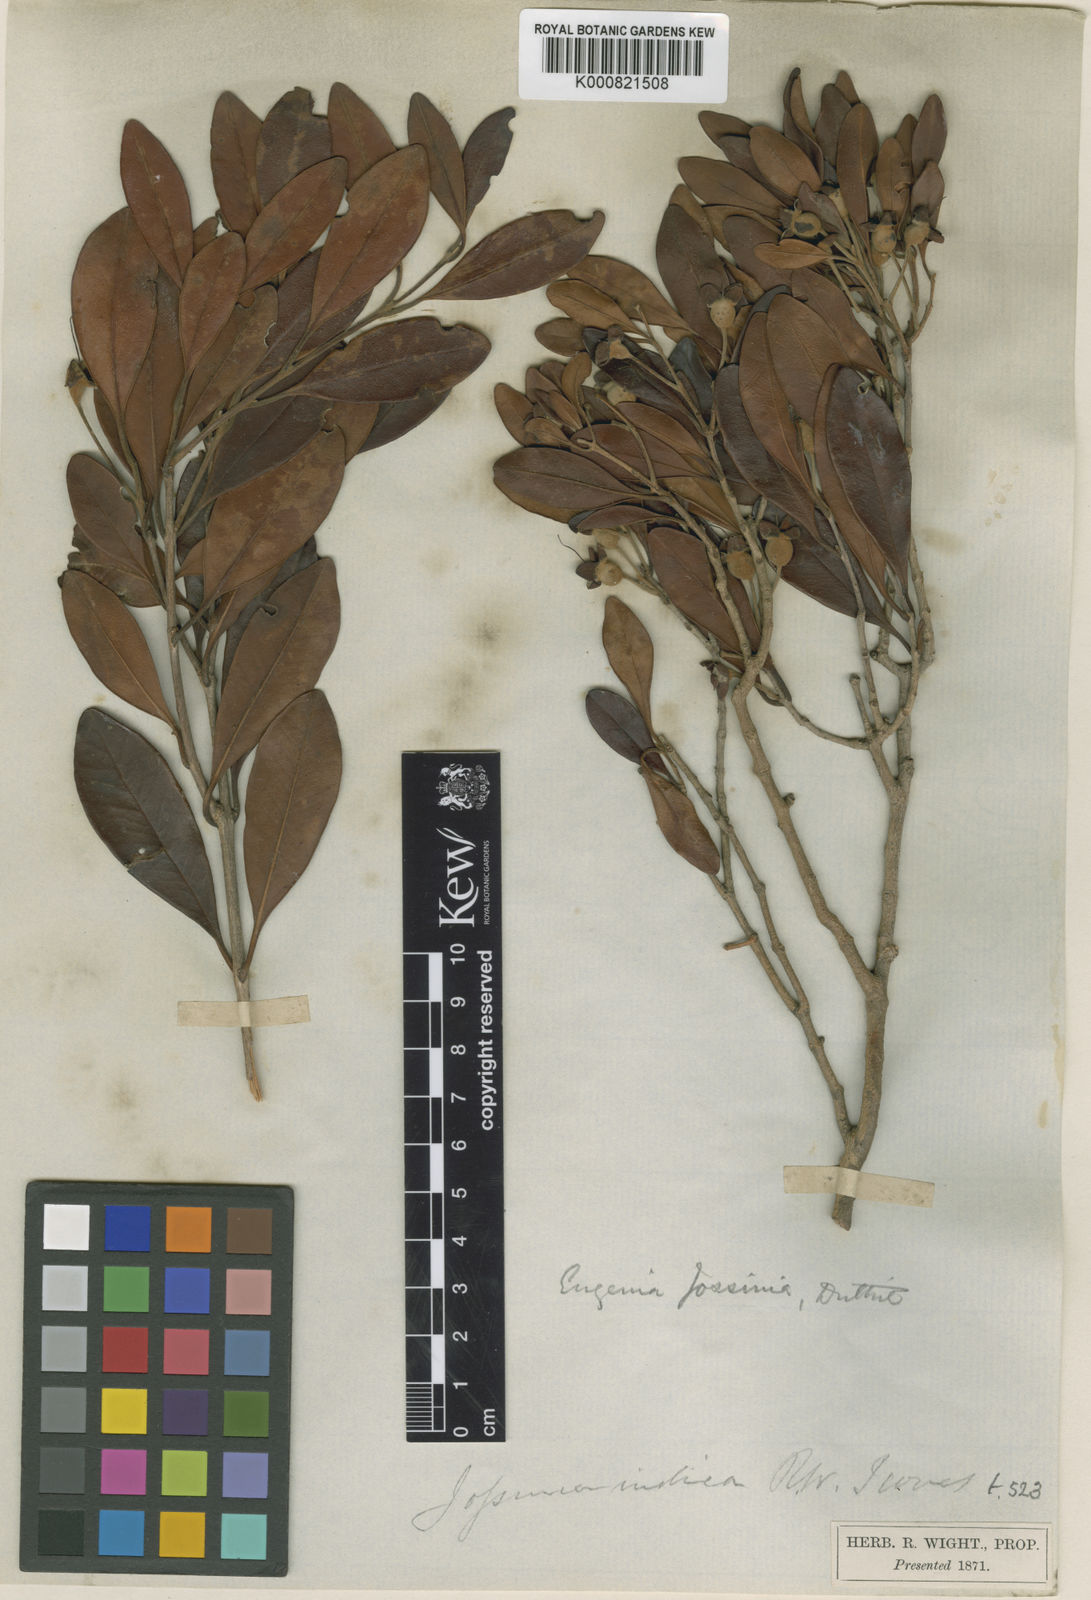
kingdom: Plantae
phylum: Tracheophyta
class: Magnoliopsida
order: Myrtales
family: Myrtaceae
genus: Eugenia
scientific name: Eugenia indica
